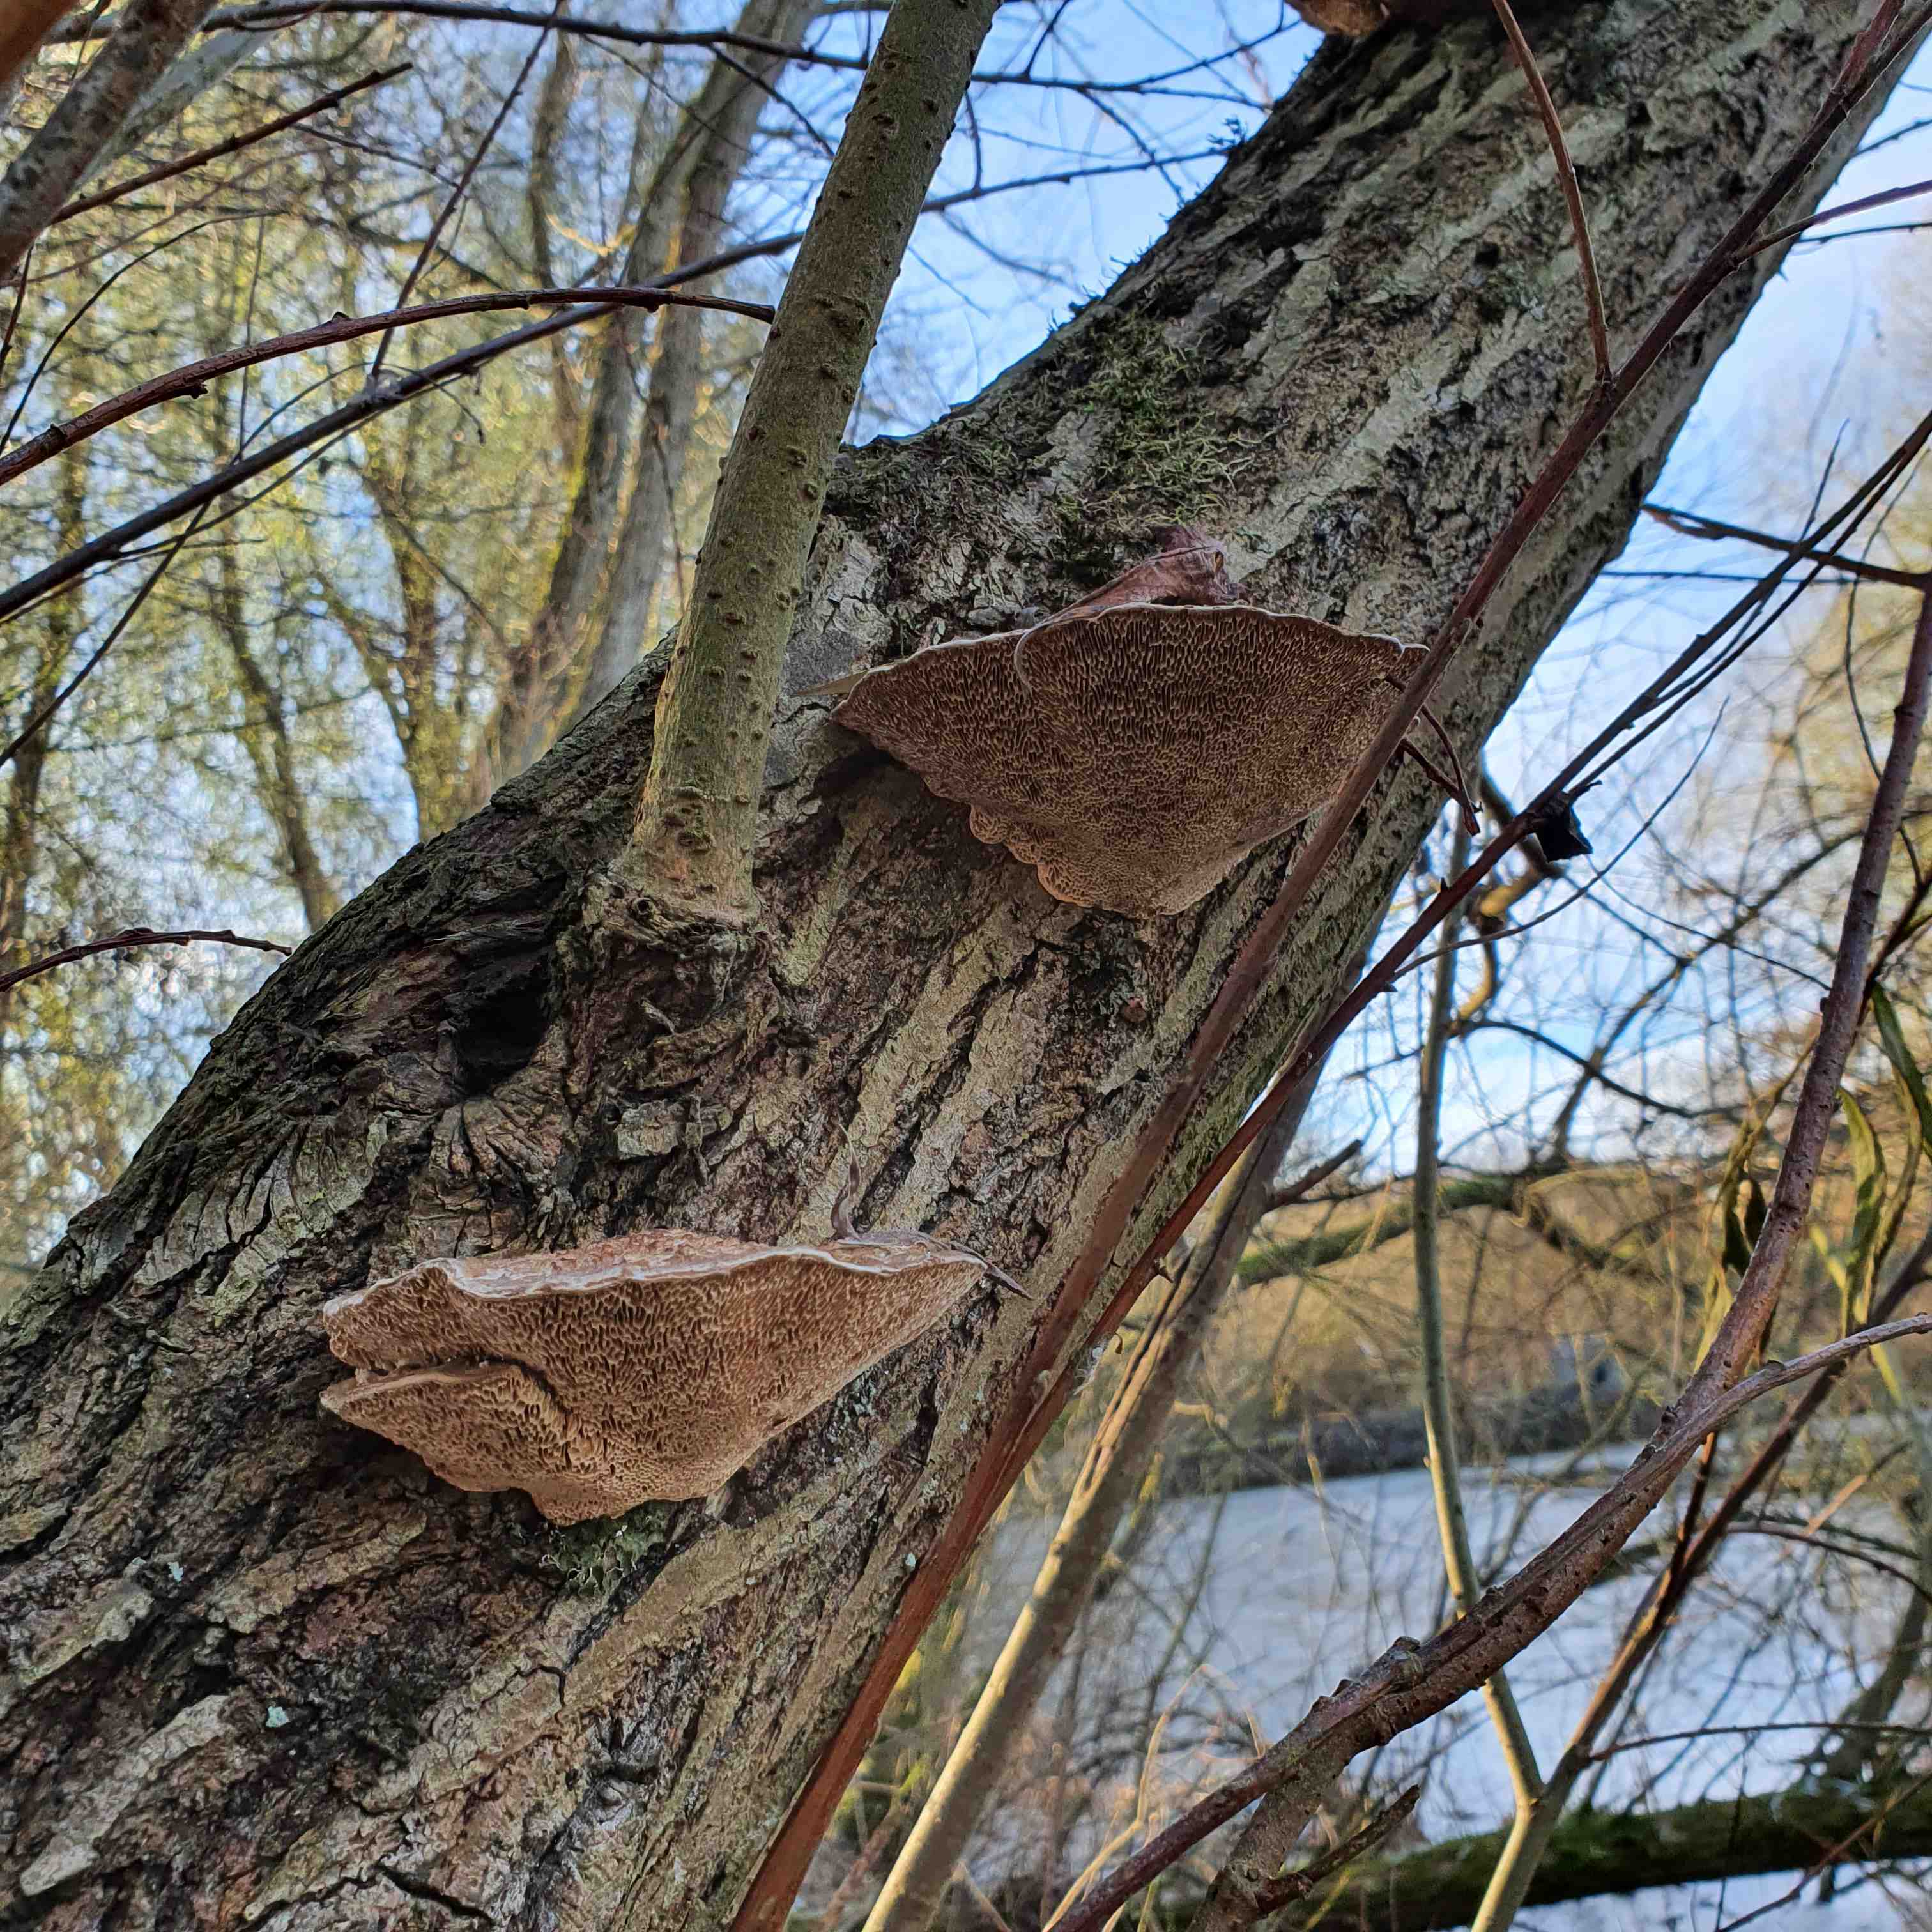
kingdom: Fungi
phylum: Basidiomycota
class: Agaricomycetes
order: Polyporales
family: Polyporaceae
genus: Daedaleopsis
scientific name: Daedaleopsis confragosa
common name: rødmende læderporesvamp
